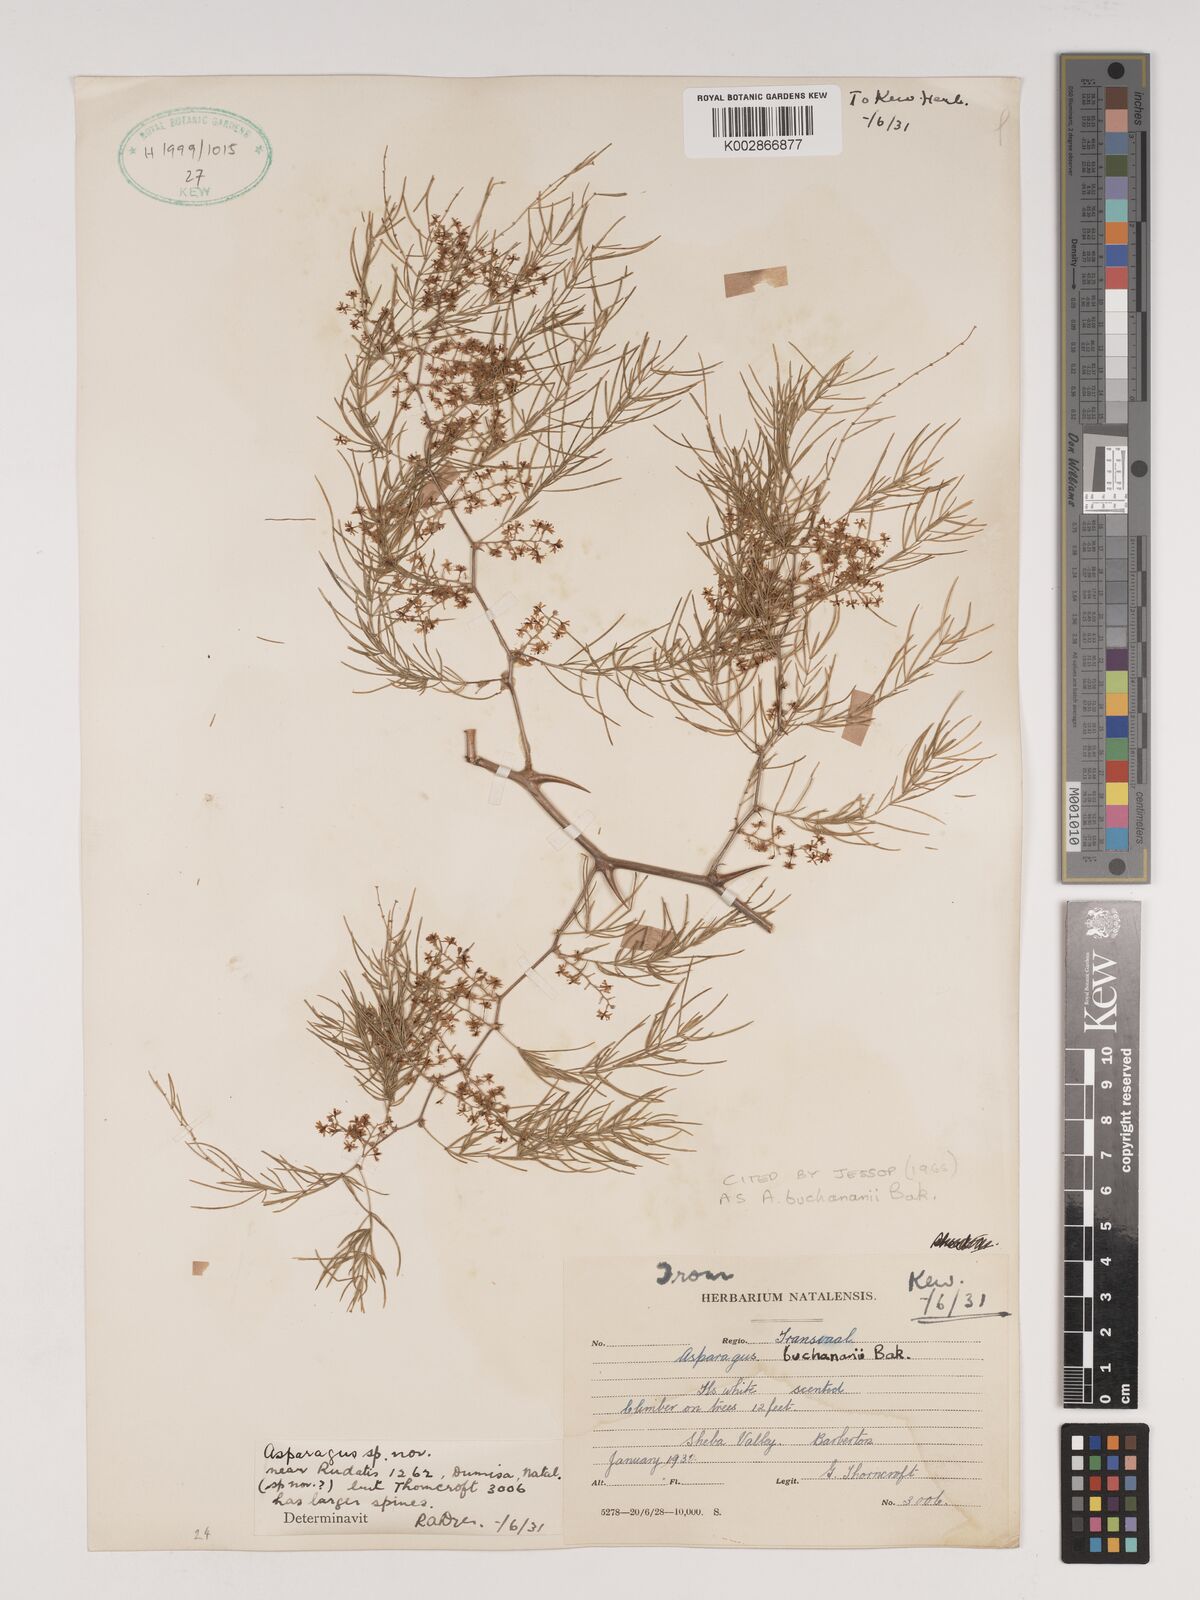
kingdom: Plantae
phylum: Tracheophyta
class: Liliopsida
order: Asparagales
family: Asparagaceae
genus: Asparagus
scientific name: Asparagus buchananii
